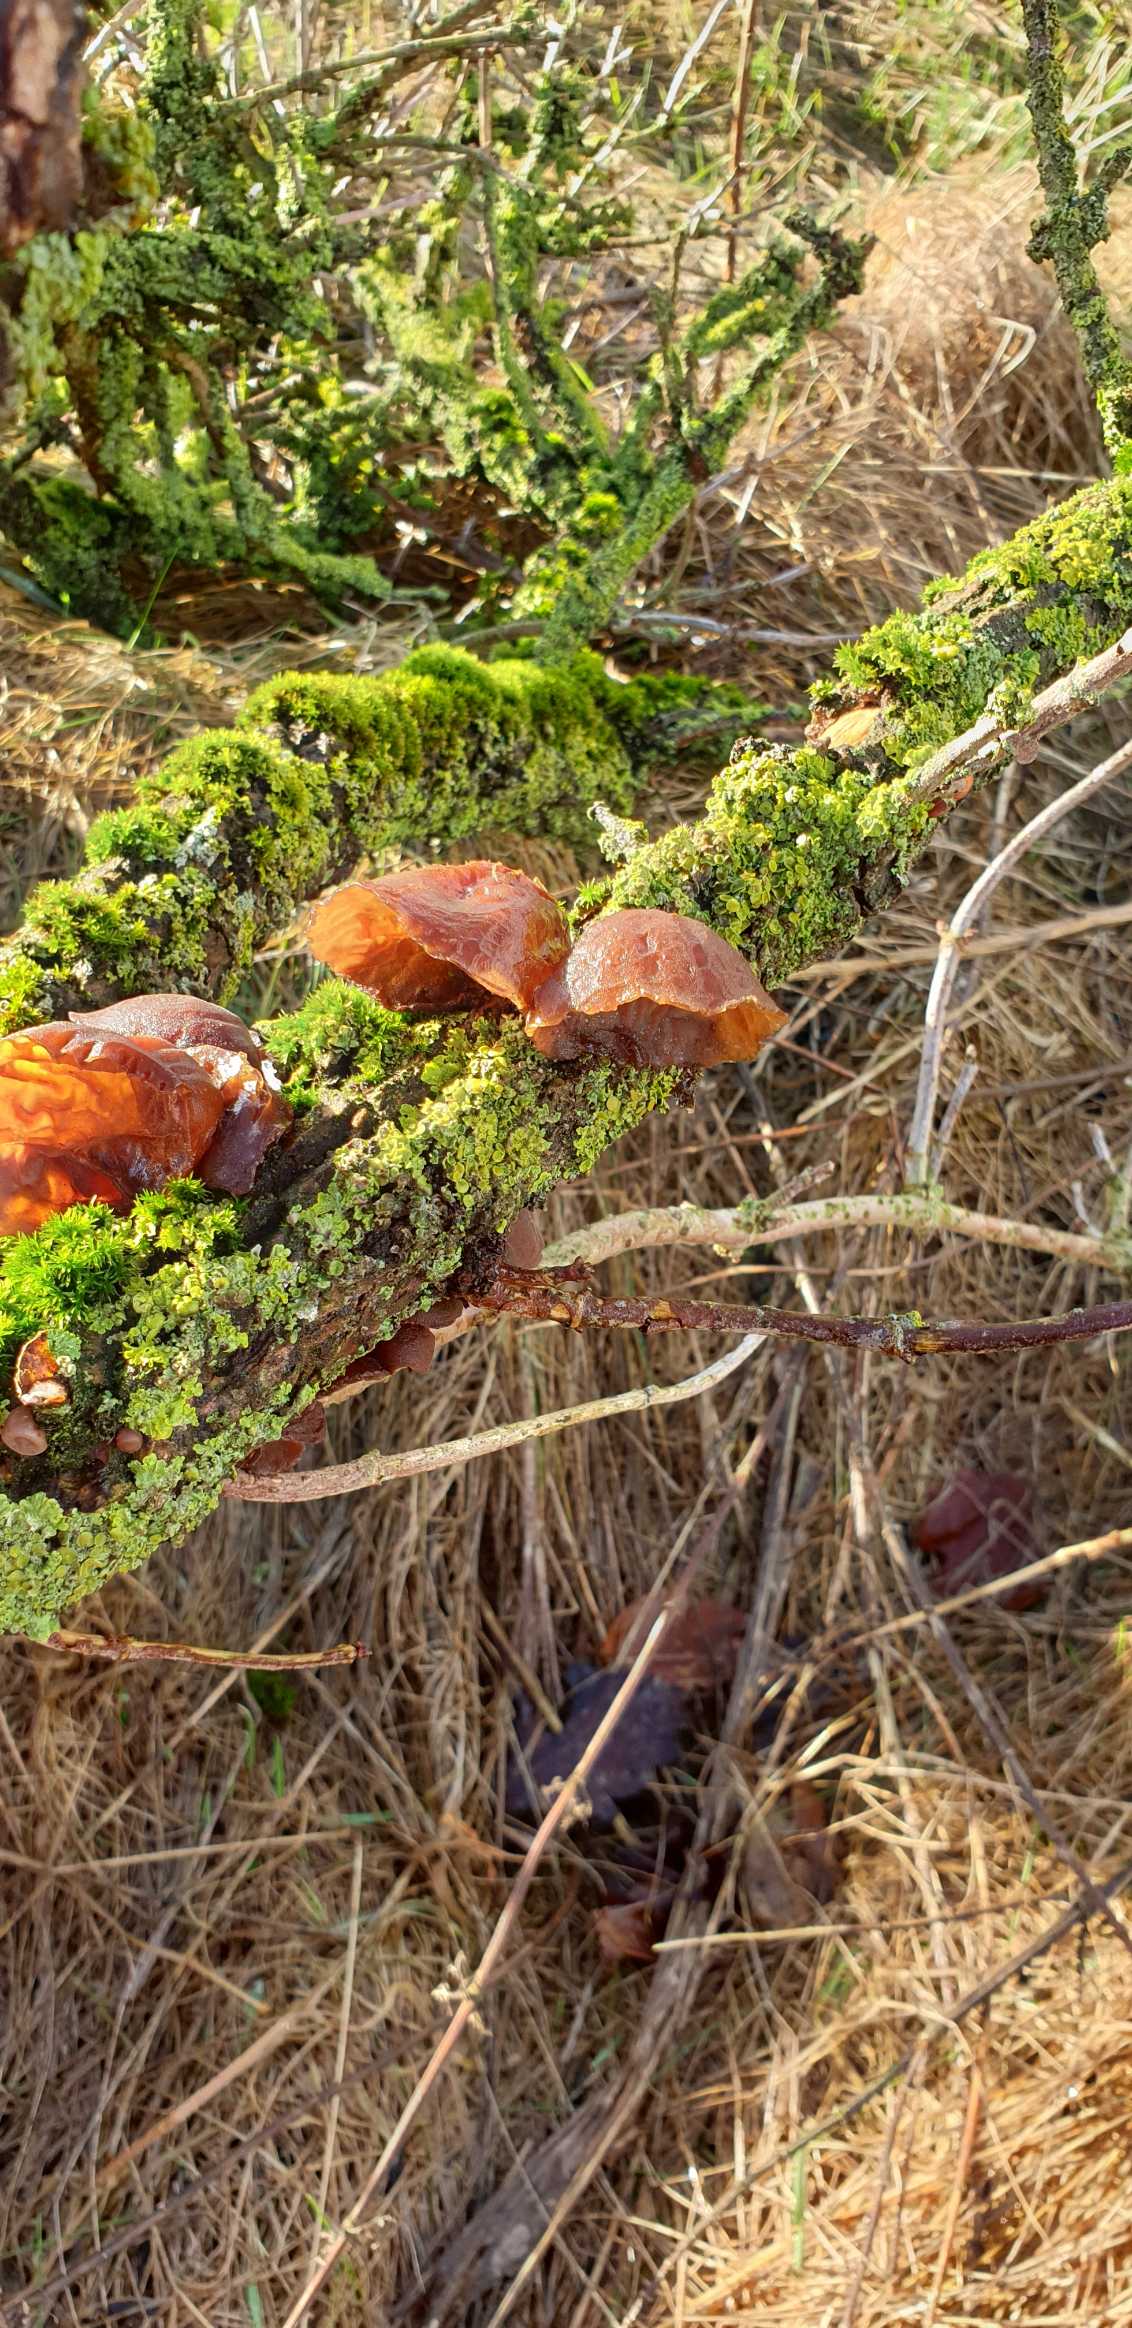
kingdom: Fungi
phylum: Basidiomycota
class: Agaricomycetes
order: Auriculariales
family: Auriculariaceae
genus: Auricularia
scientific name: Auricularia auricula-judae
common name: Almindelig judasøre
